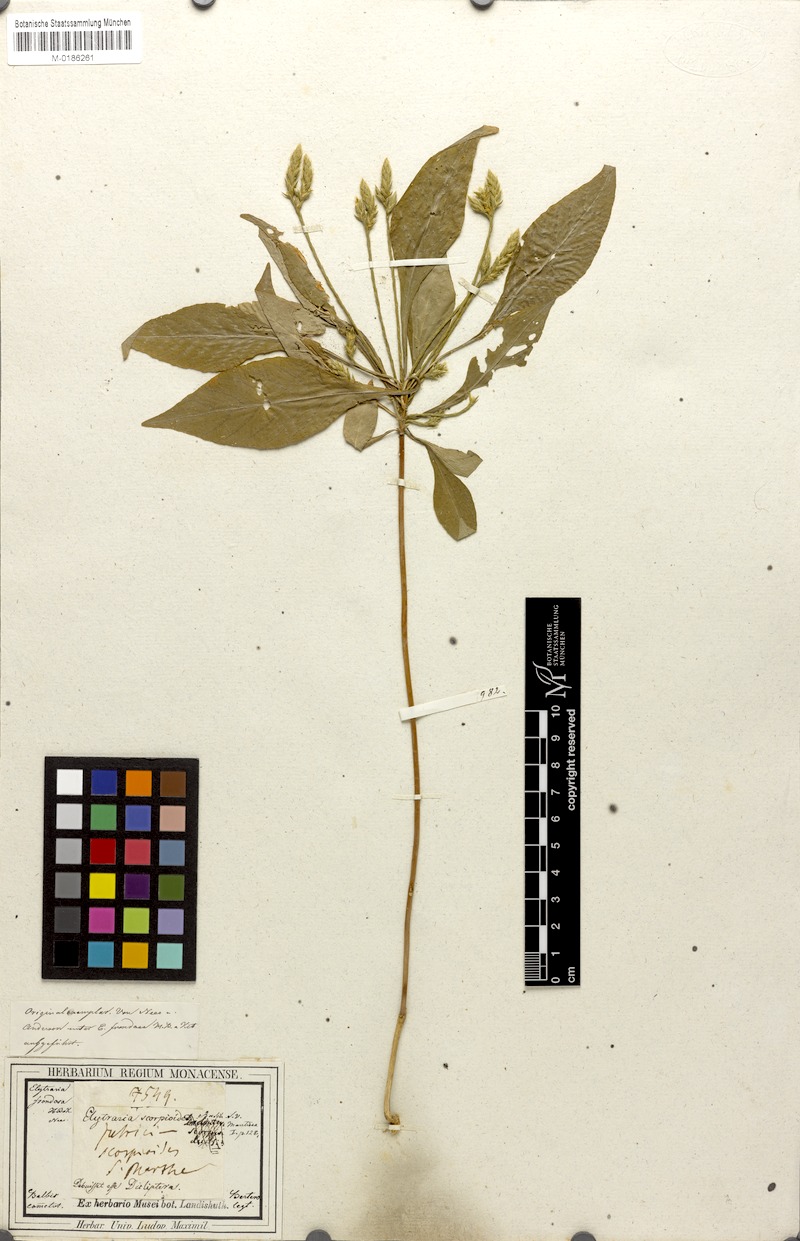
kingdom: Plantae
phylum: Tracheophyta
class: Magnoliopsida
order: Lamiales
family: Acanthaceae
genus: Elytraria
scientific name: Elytraria imbricata
